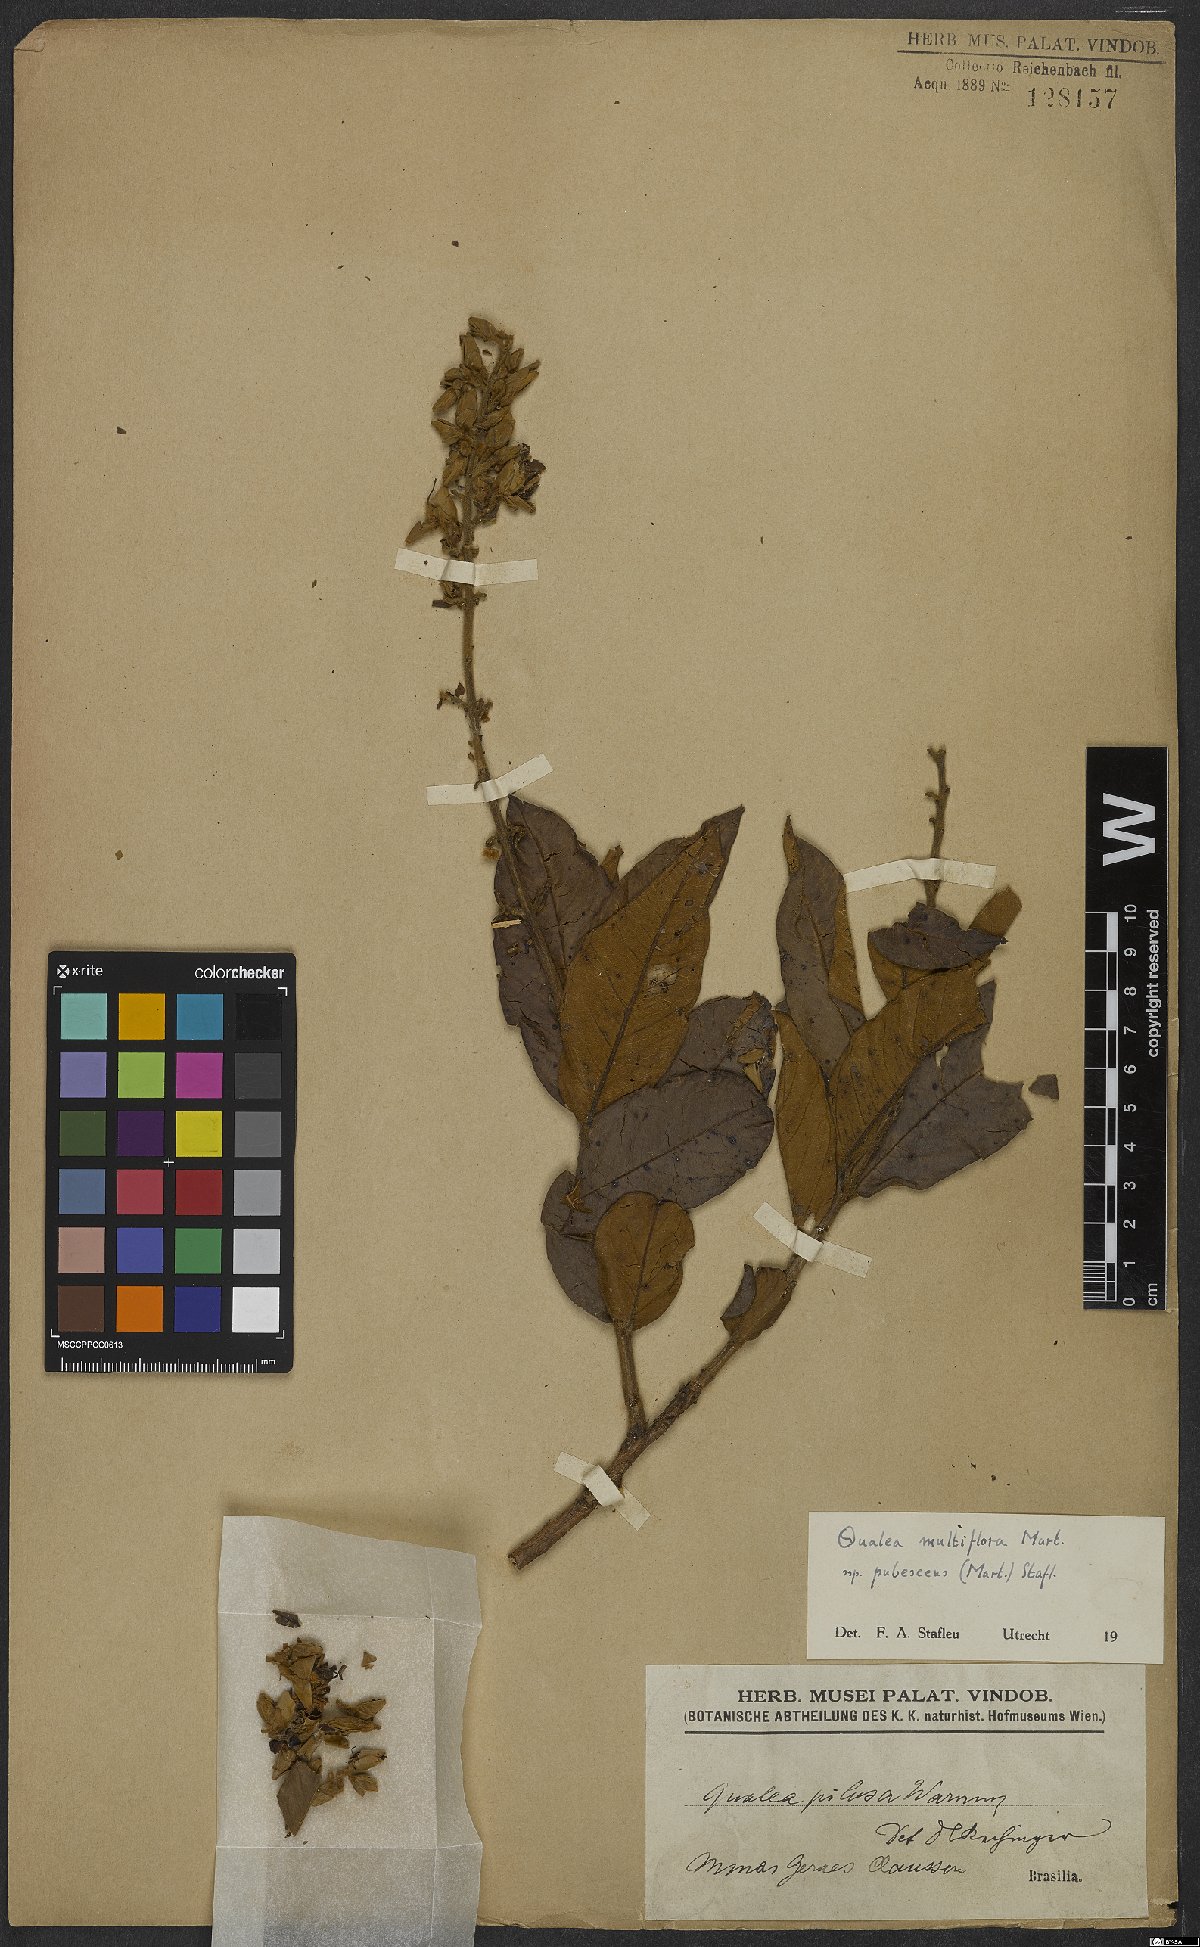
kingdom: Plantae
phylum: Tracheophyta
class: Magnoliopsida
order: Myrtales
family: Vochysiaceae
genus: Qualea
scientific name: Qualea multiflora
